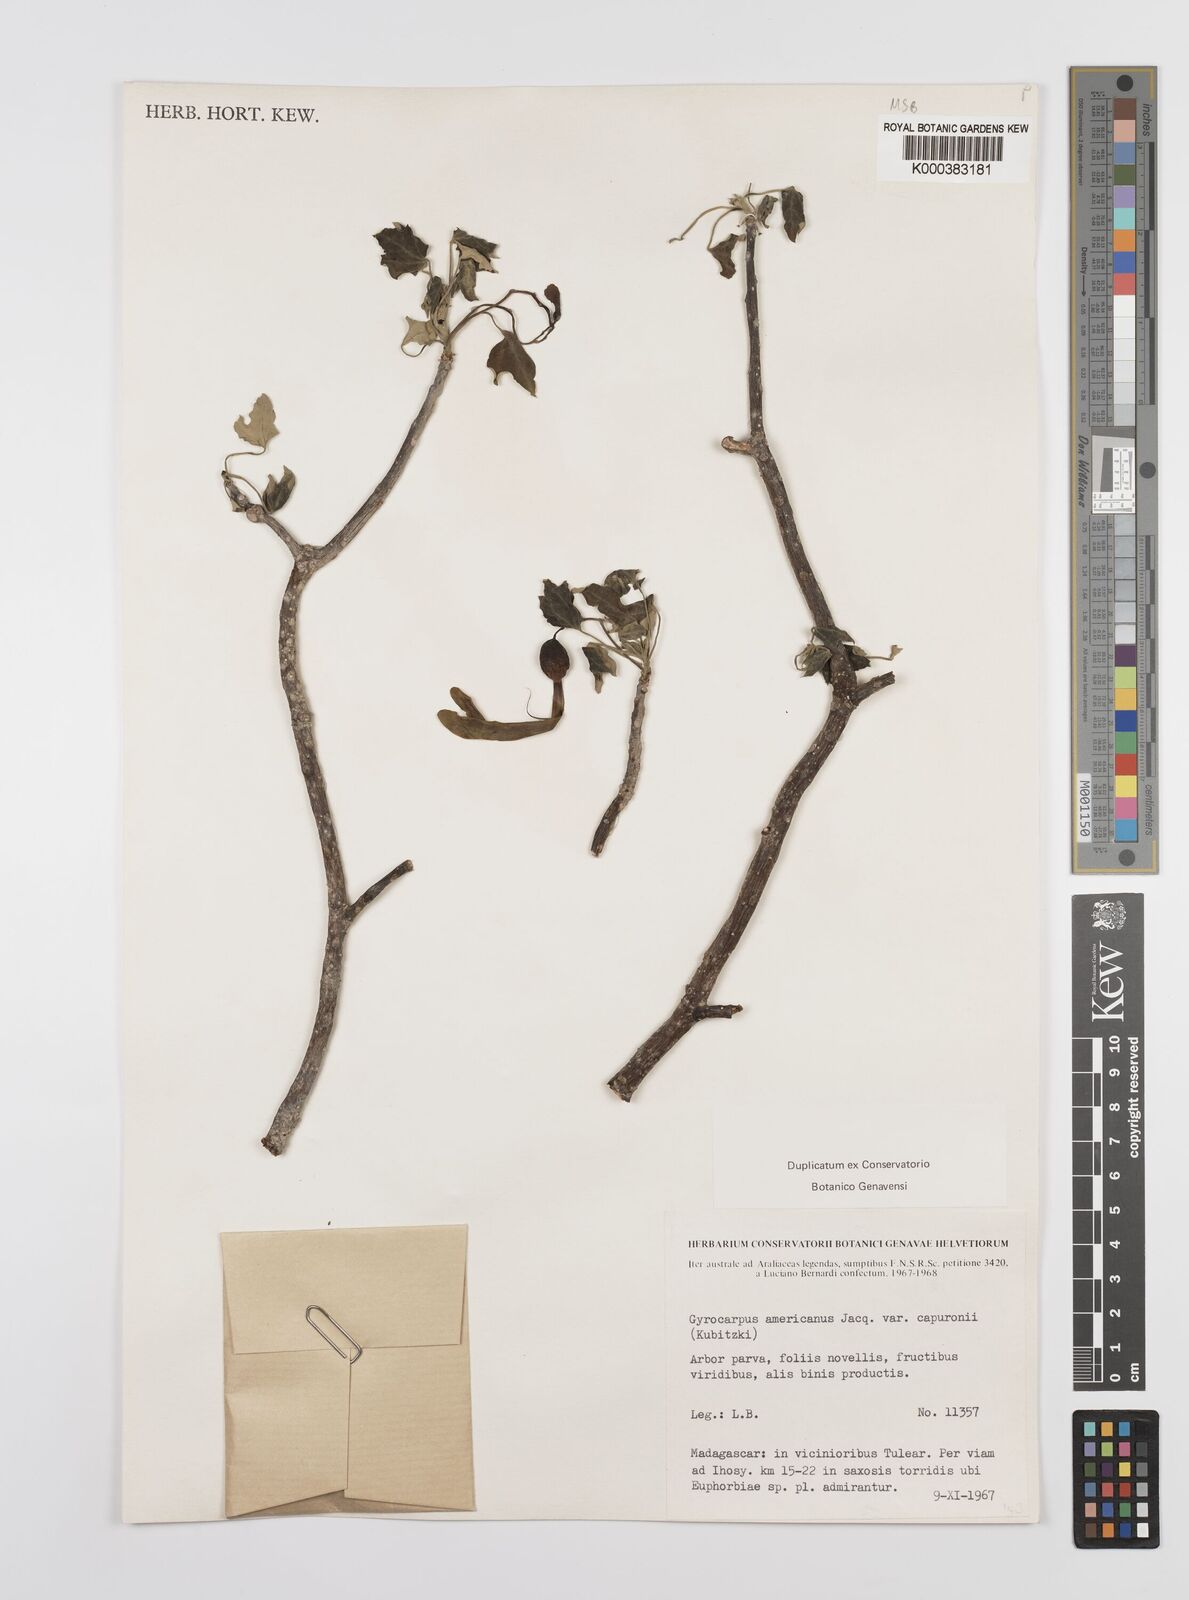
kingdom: Plantae
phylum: Tracheophyta
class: Magnoliopsida
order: Laurales
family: Hernandiaceae
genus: Gyrocarpus
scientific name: Gyrocarpus americanus
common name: Gyro damson
